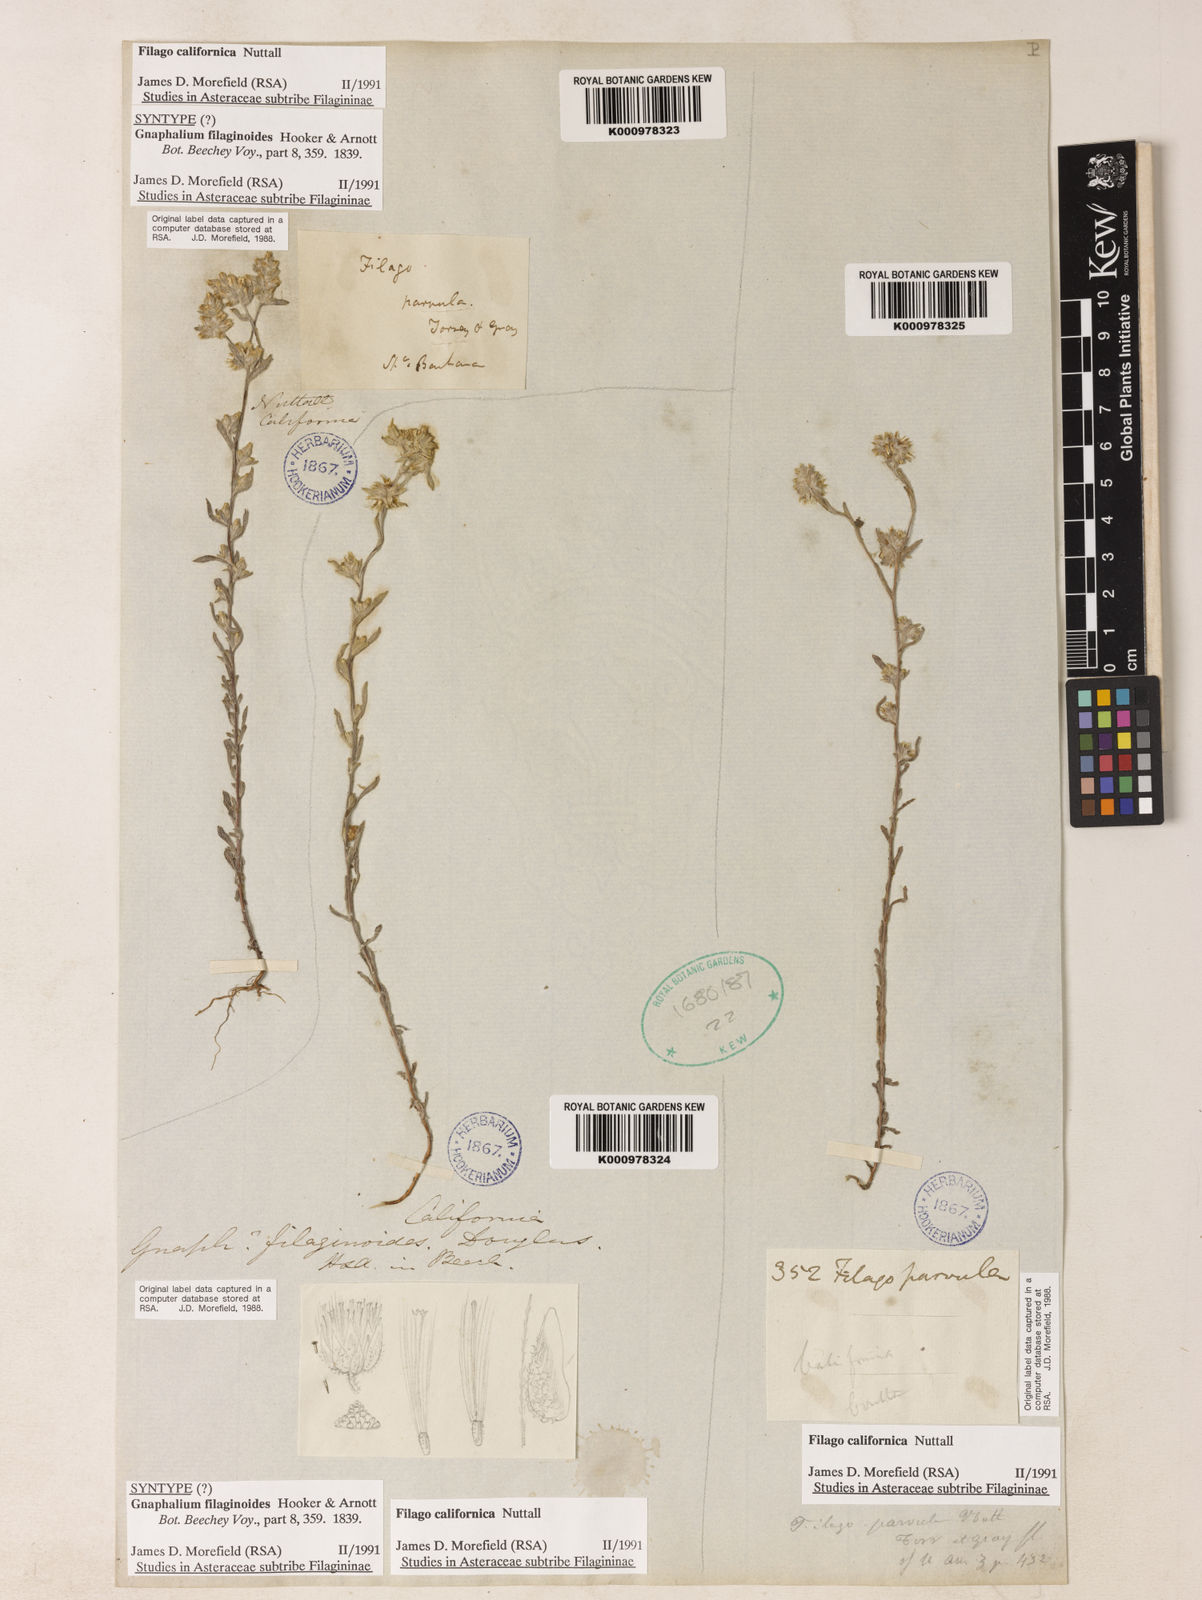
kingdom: Plantae
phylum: Tracheophyta
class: Magnoliopsida
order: Asterales
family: Asteraceae
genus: Logfia
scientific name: Logfia californica
